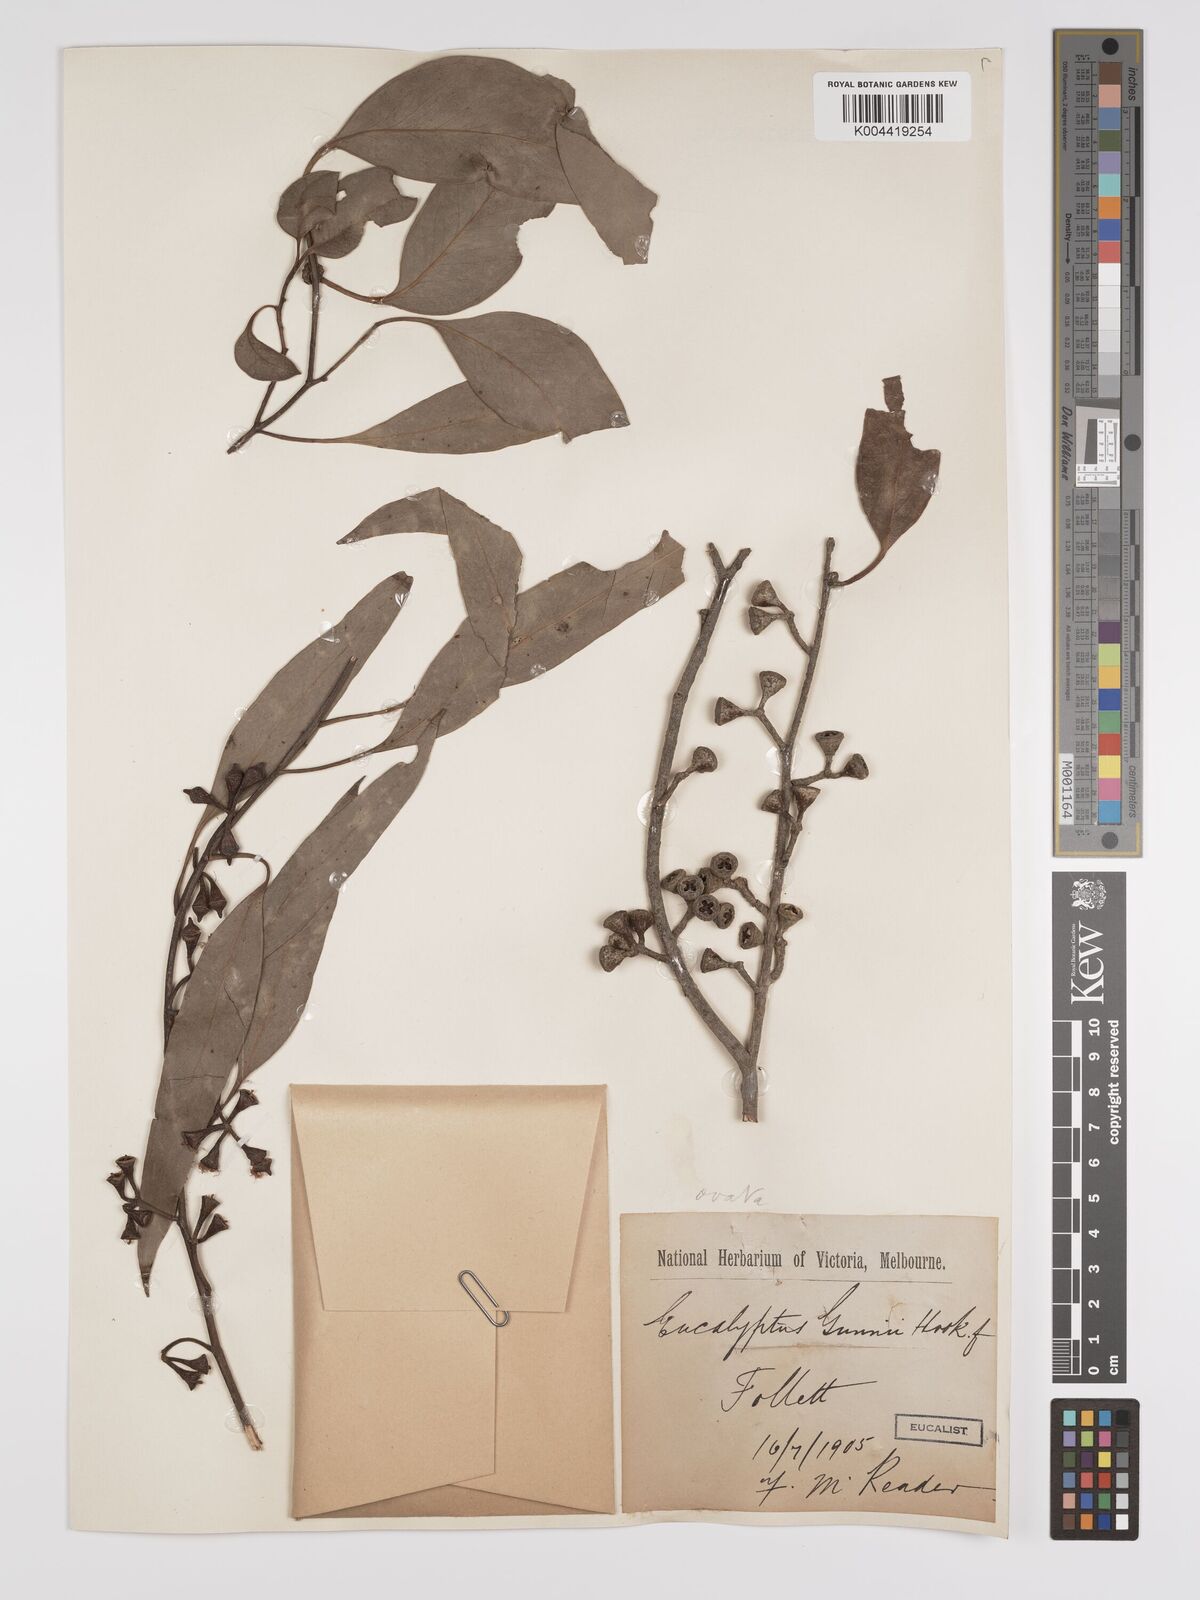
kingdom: Plantae
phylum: Tracheophyta
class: Magnoliopsida
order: Myrtales
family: Myrtaceae
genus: Eucalyptus
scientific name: Eucalyptus ovata
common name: Black-gum
